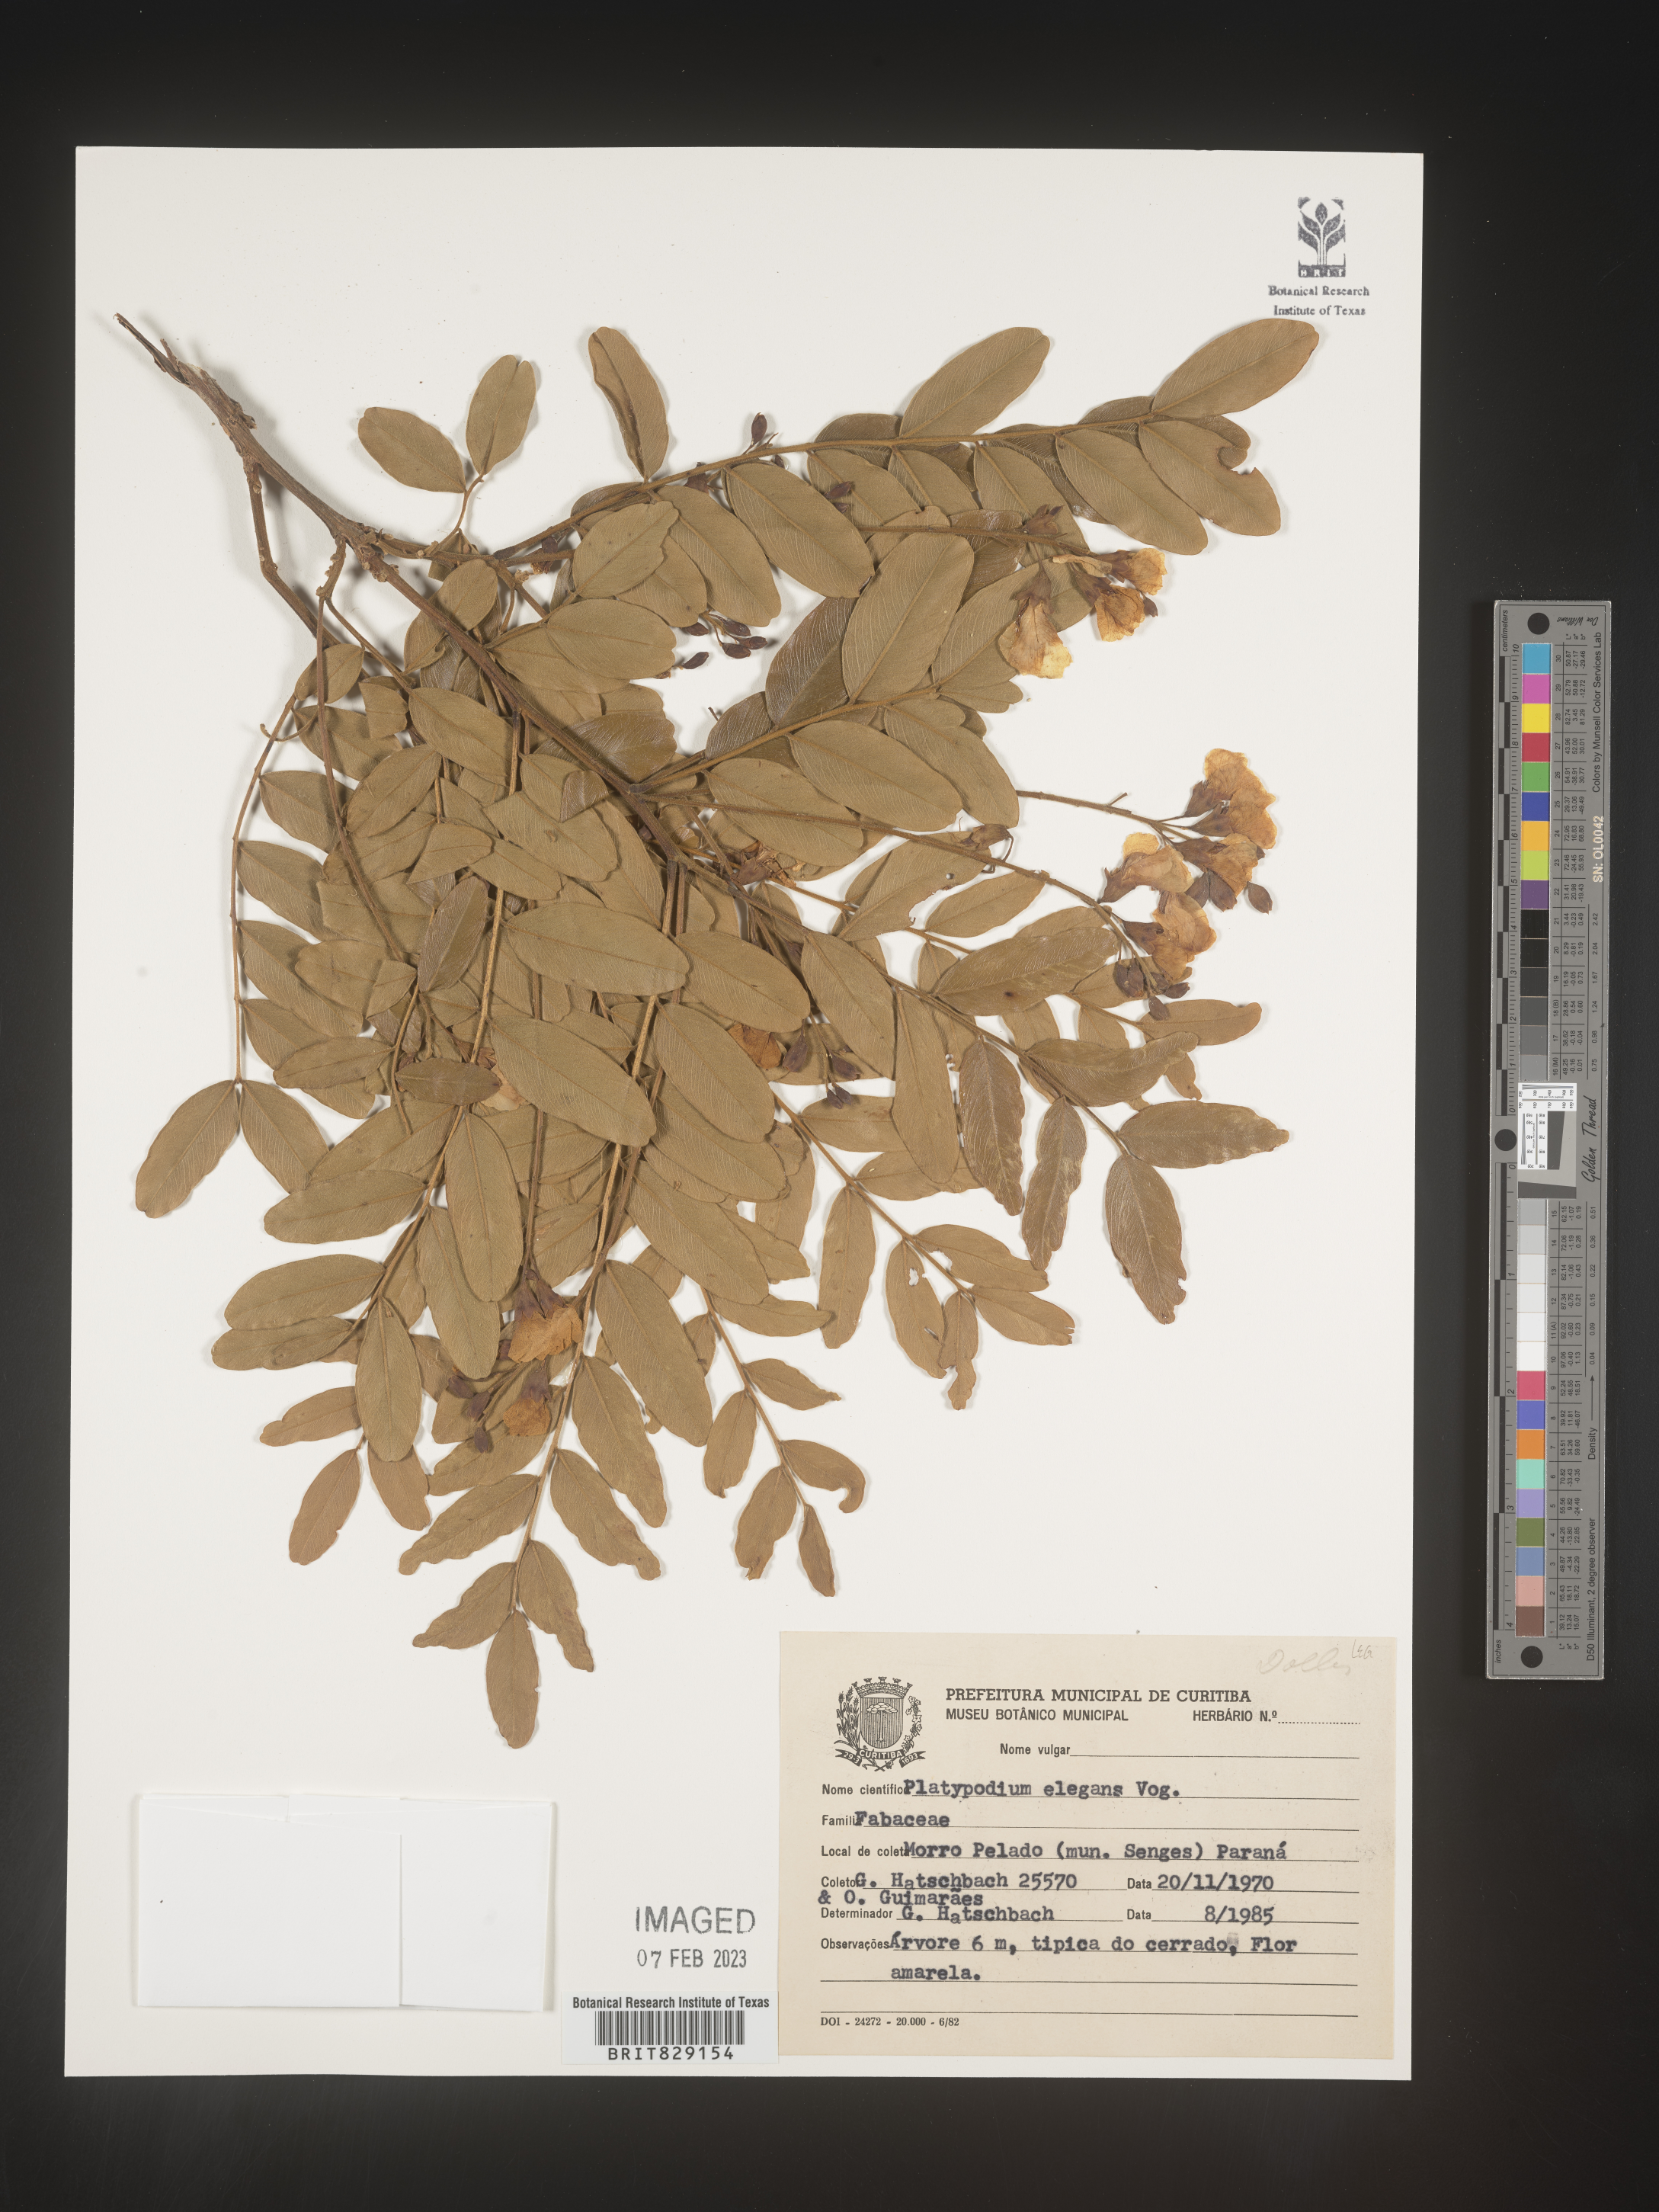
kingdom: Plantae
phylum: Tracheophyta
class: Magnoliopsida
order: Fabales
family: Fabaceae
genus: Platypodium
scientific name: Platypodium
